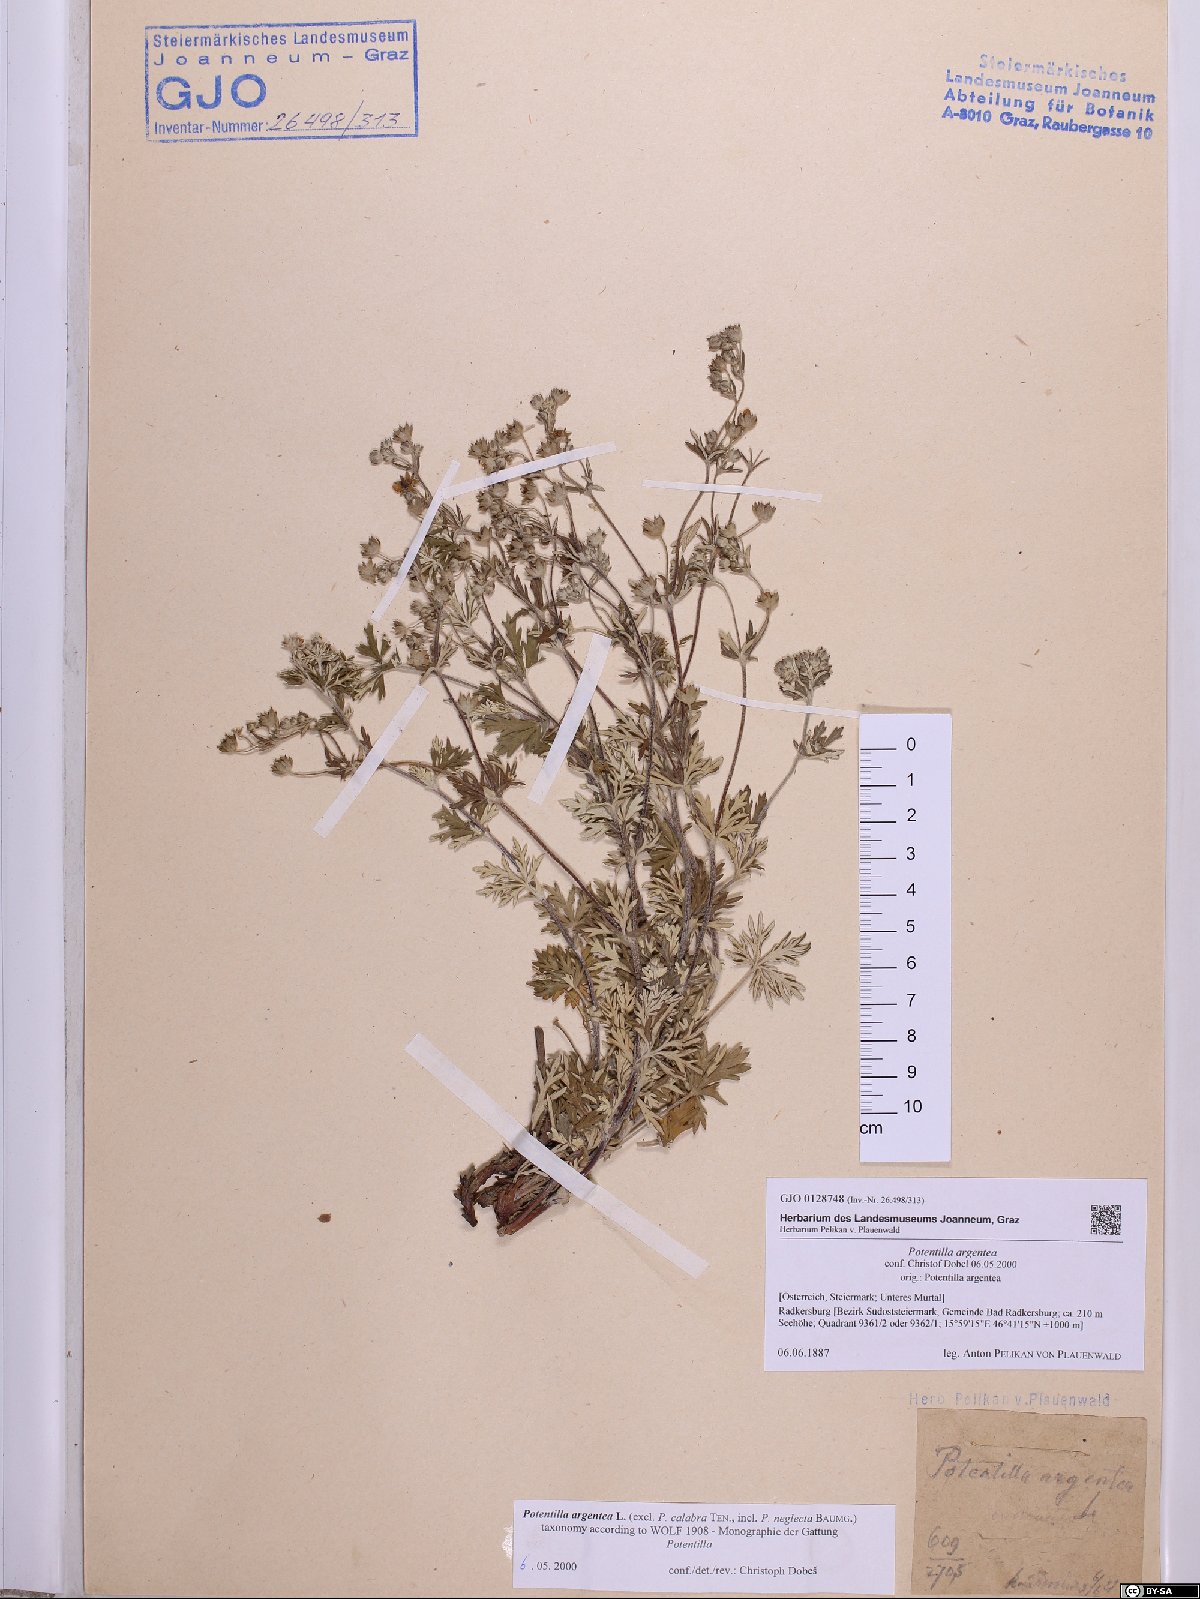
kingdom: Plantae
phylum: Tracheophyta
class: Magnoliopsida
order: Rosales
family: Rosaceae
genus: Potentilla
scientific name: Potentilla argentea
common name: Hoary cinquefoil
